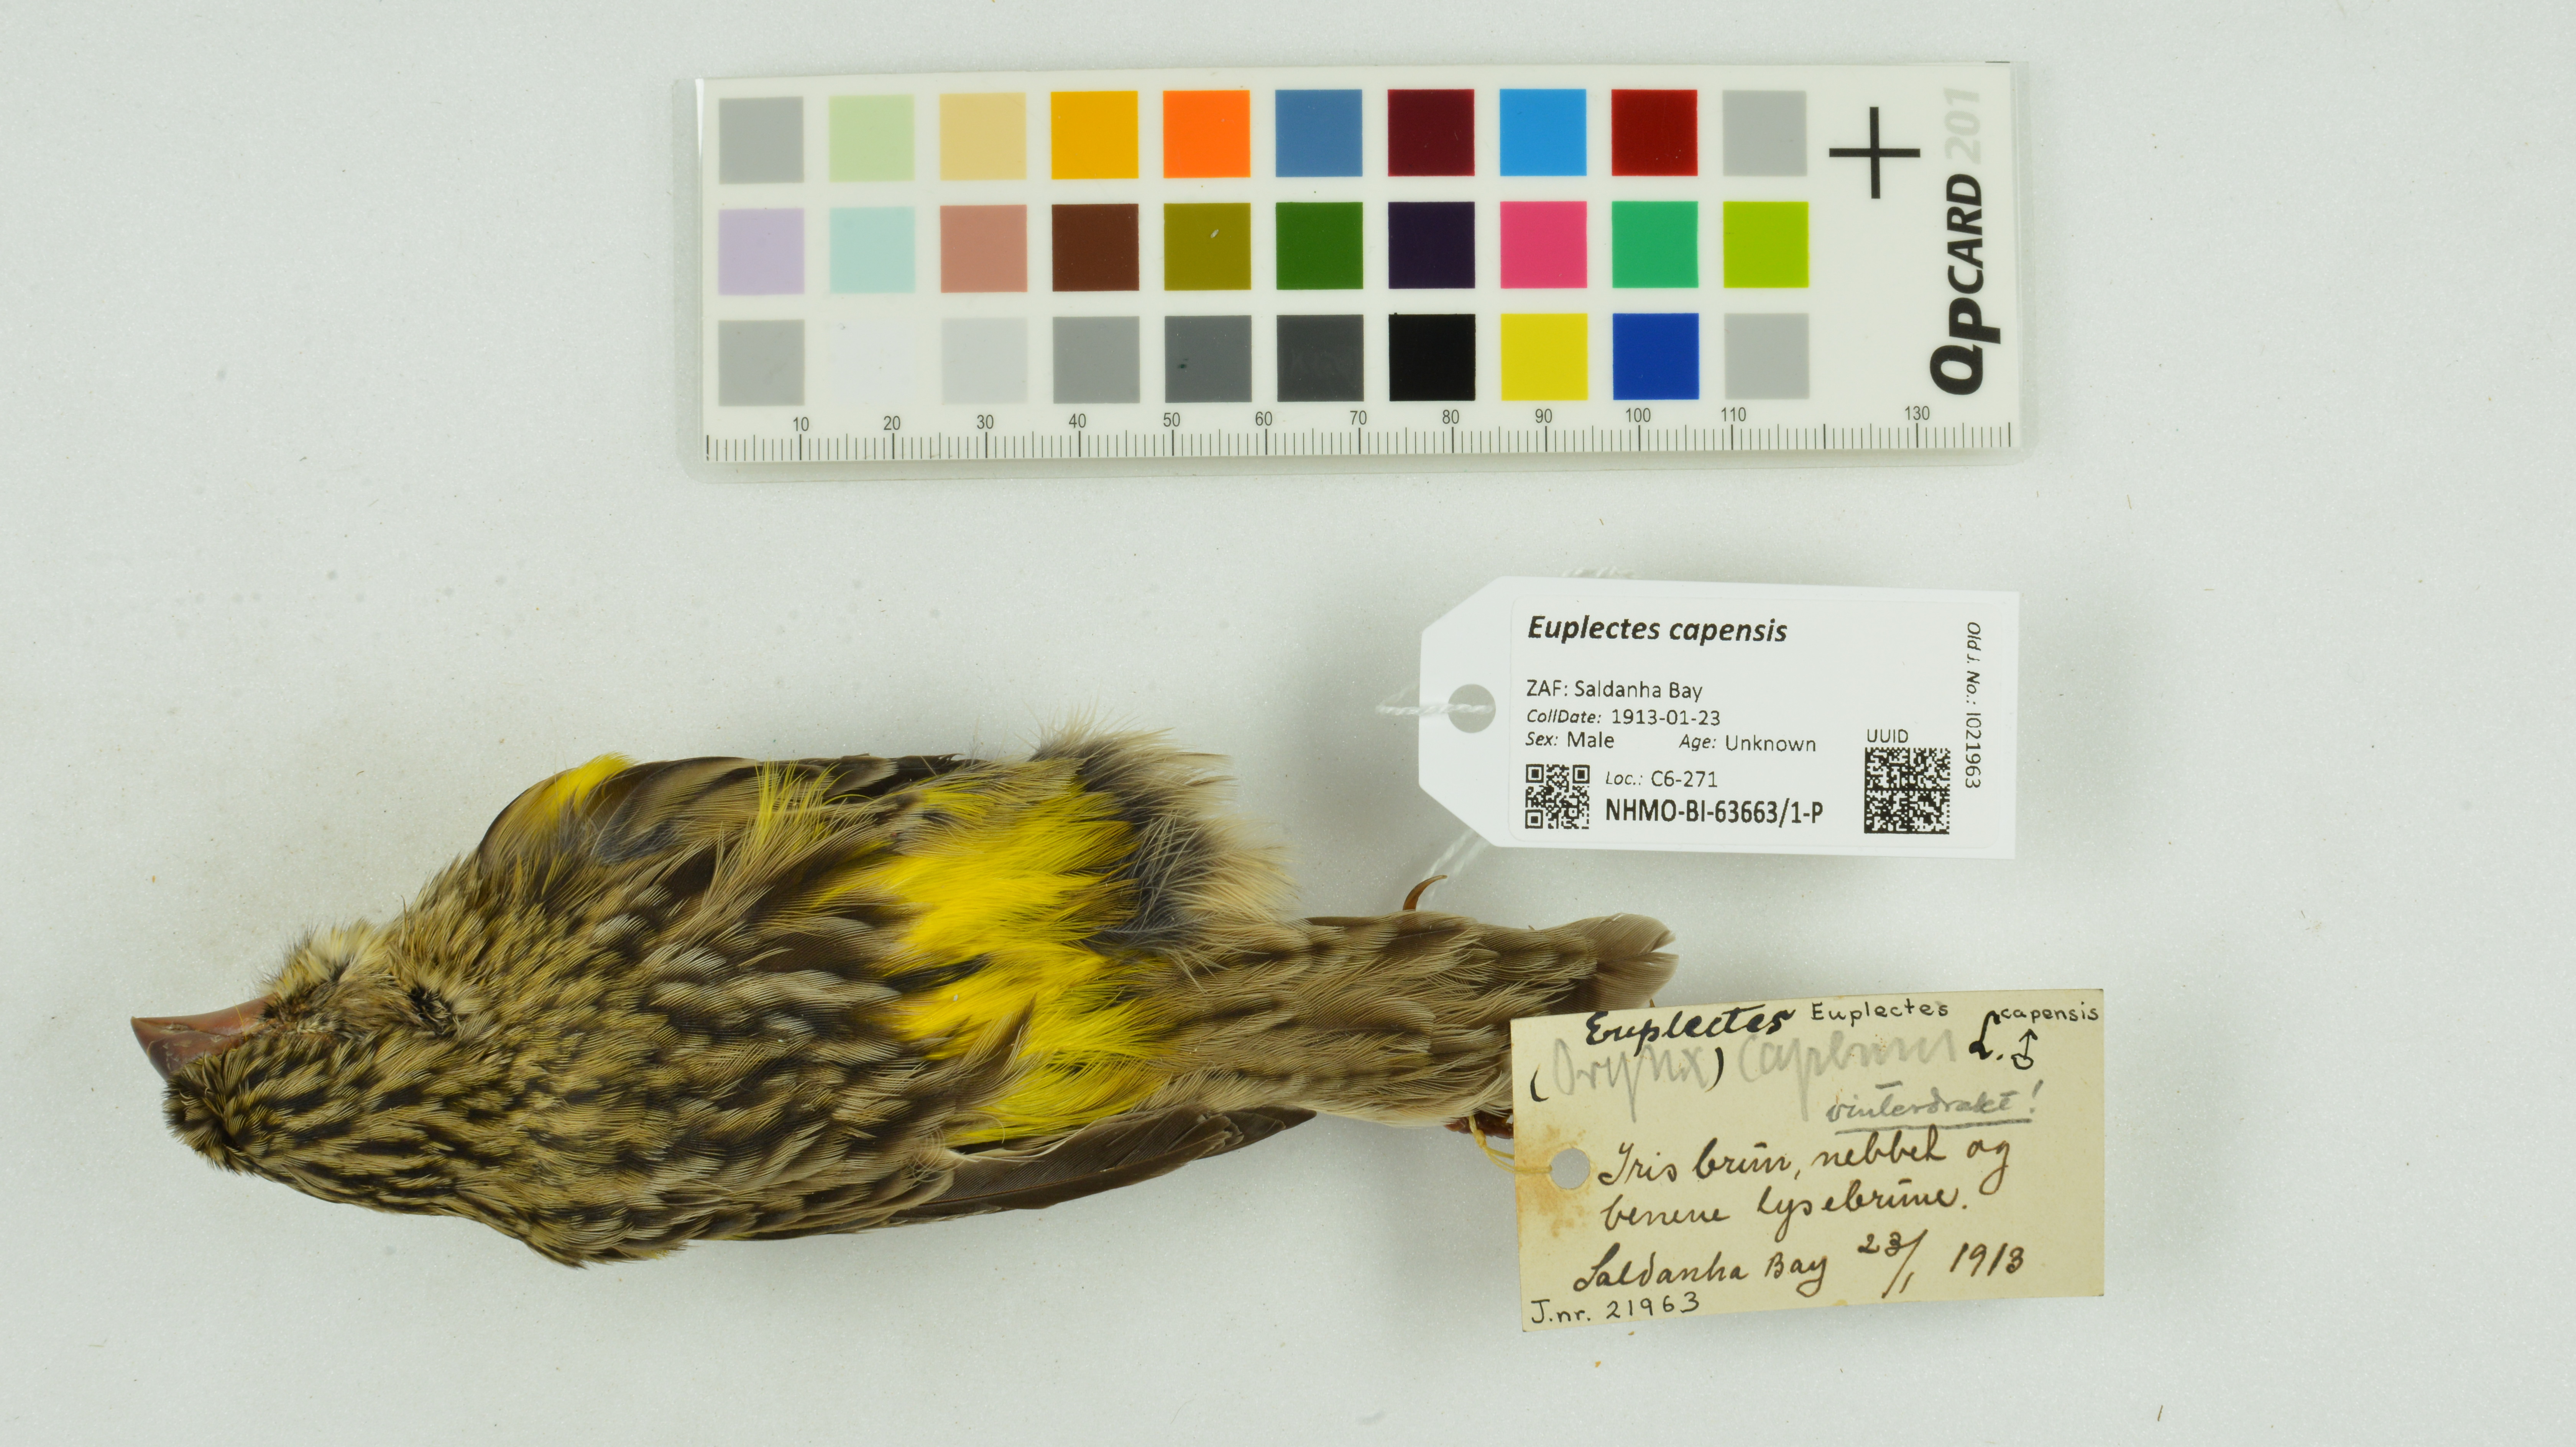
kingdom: Animalia
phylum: Chordata
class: Aves
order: Passeriformes
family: Ploceidae
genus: Euplectes
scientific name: Euplectes capensis
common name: Yellow bishop
